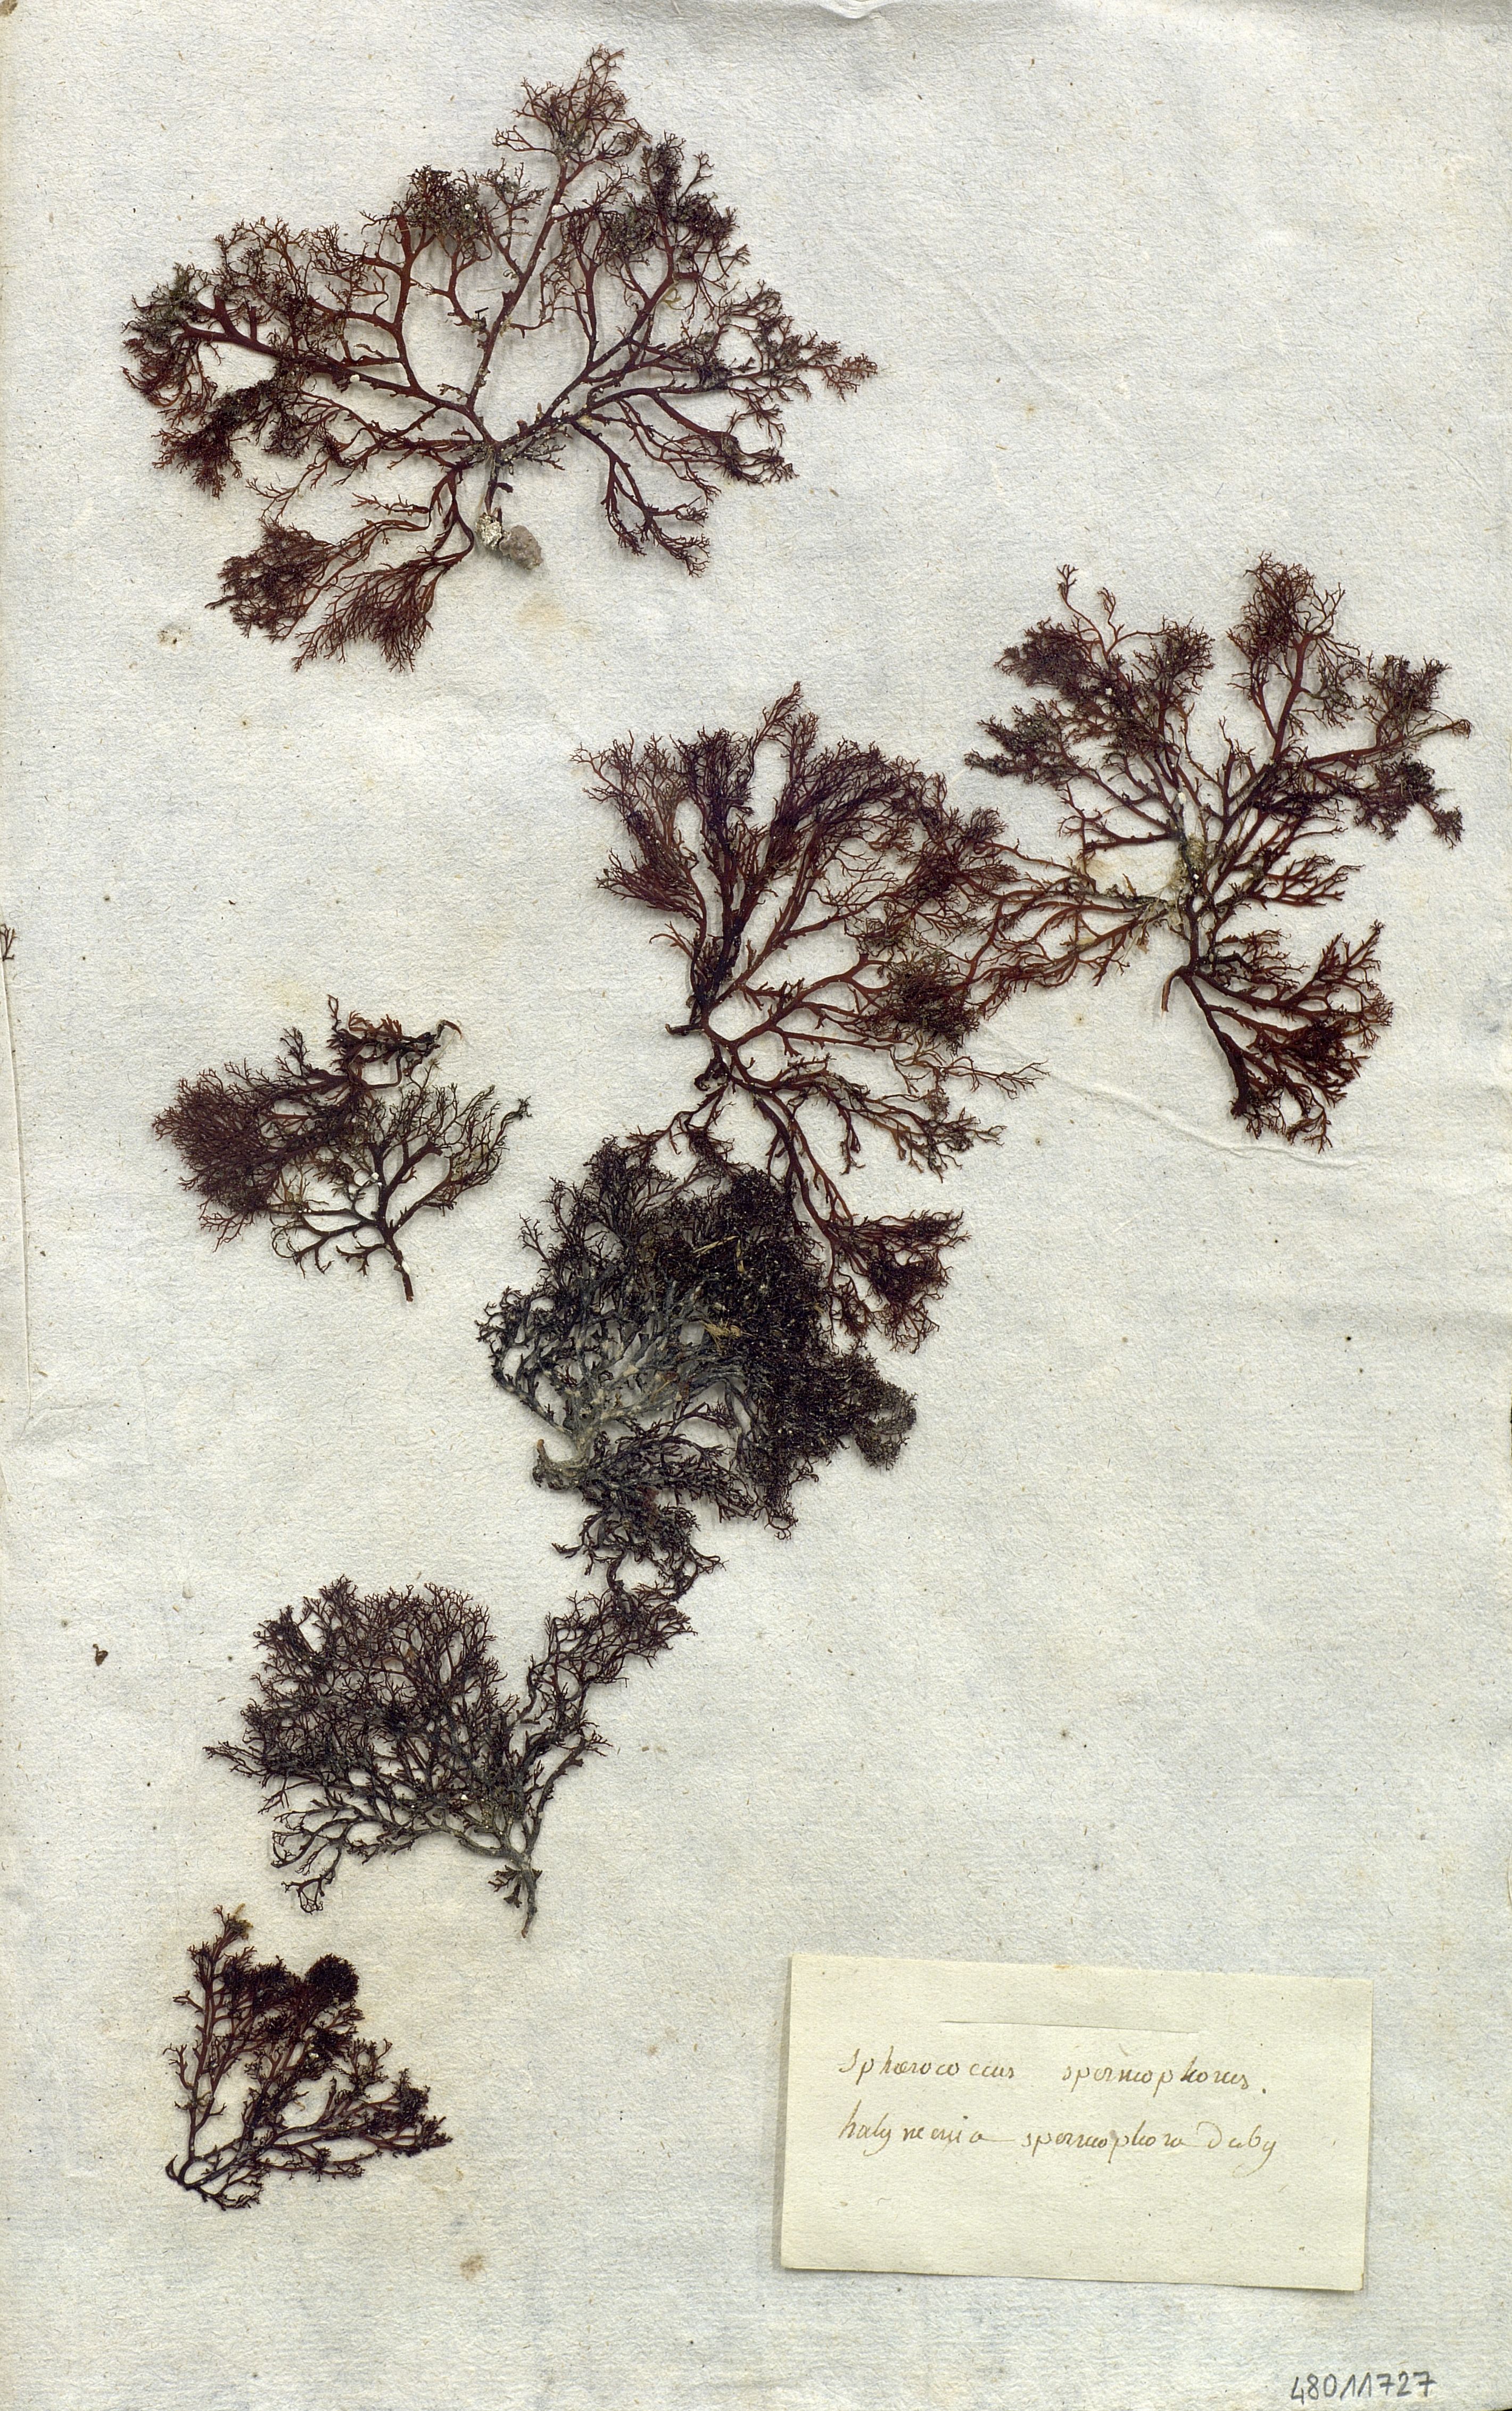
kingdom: Plantae
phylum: Rhodophyta
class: Florideophyceae
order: Gigartinales
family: Sphaerococcaceae
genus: Sphaerococcus
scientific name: Sphaerococcus
